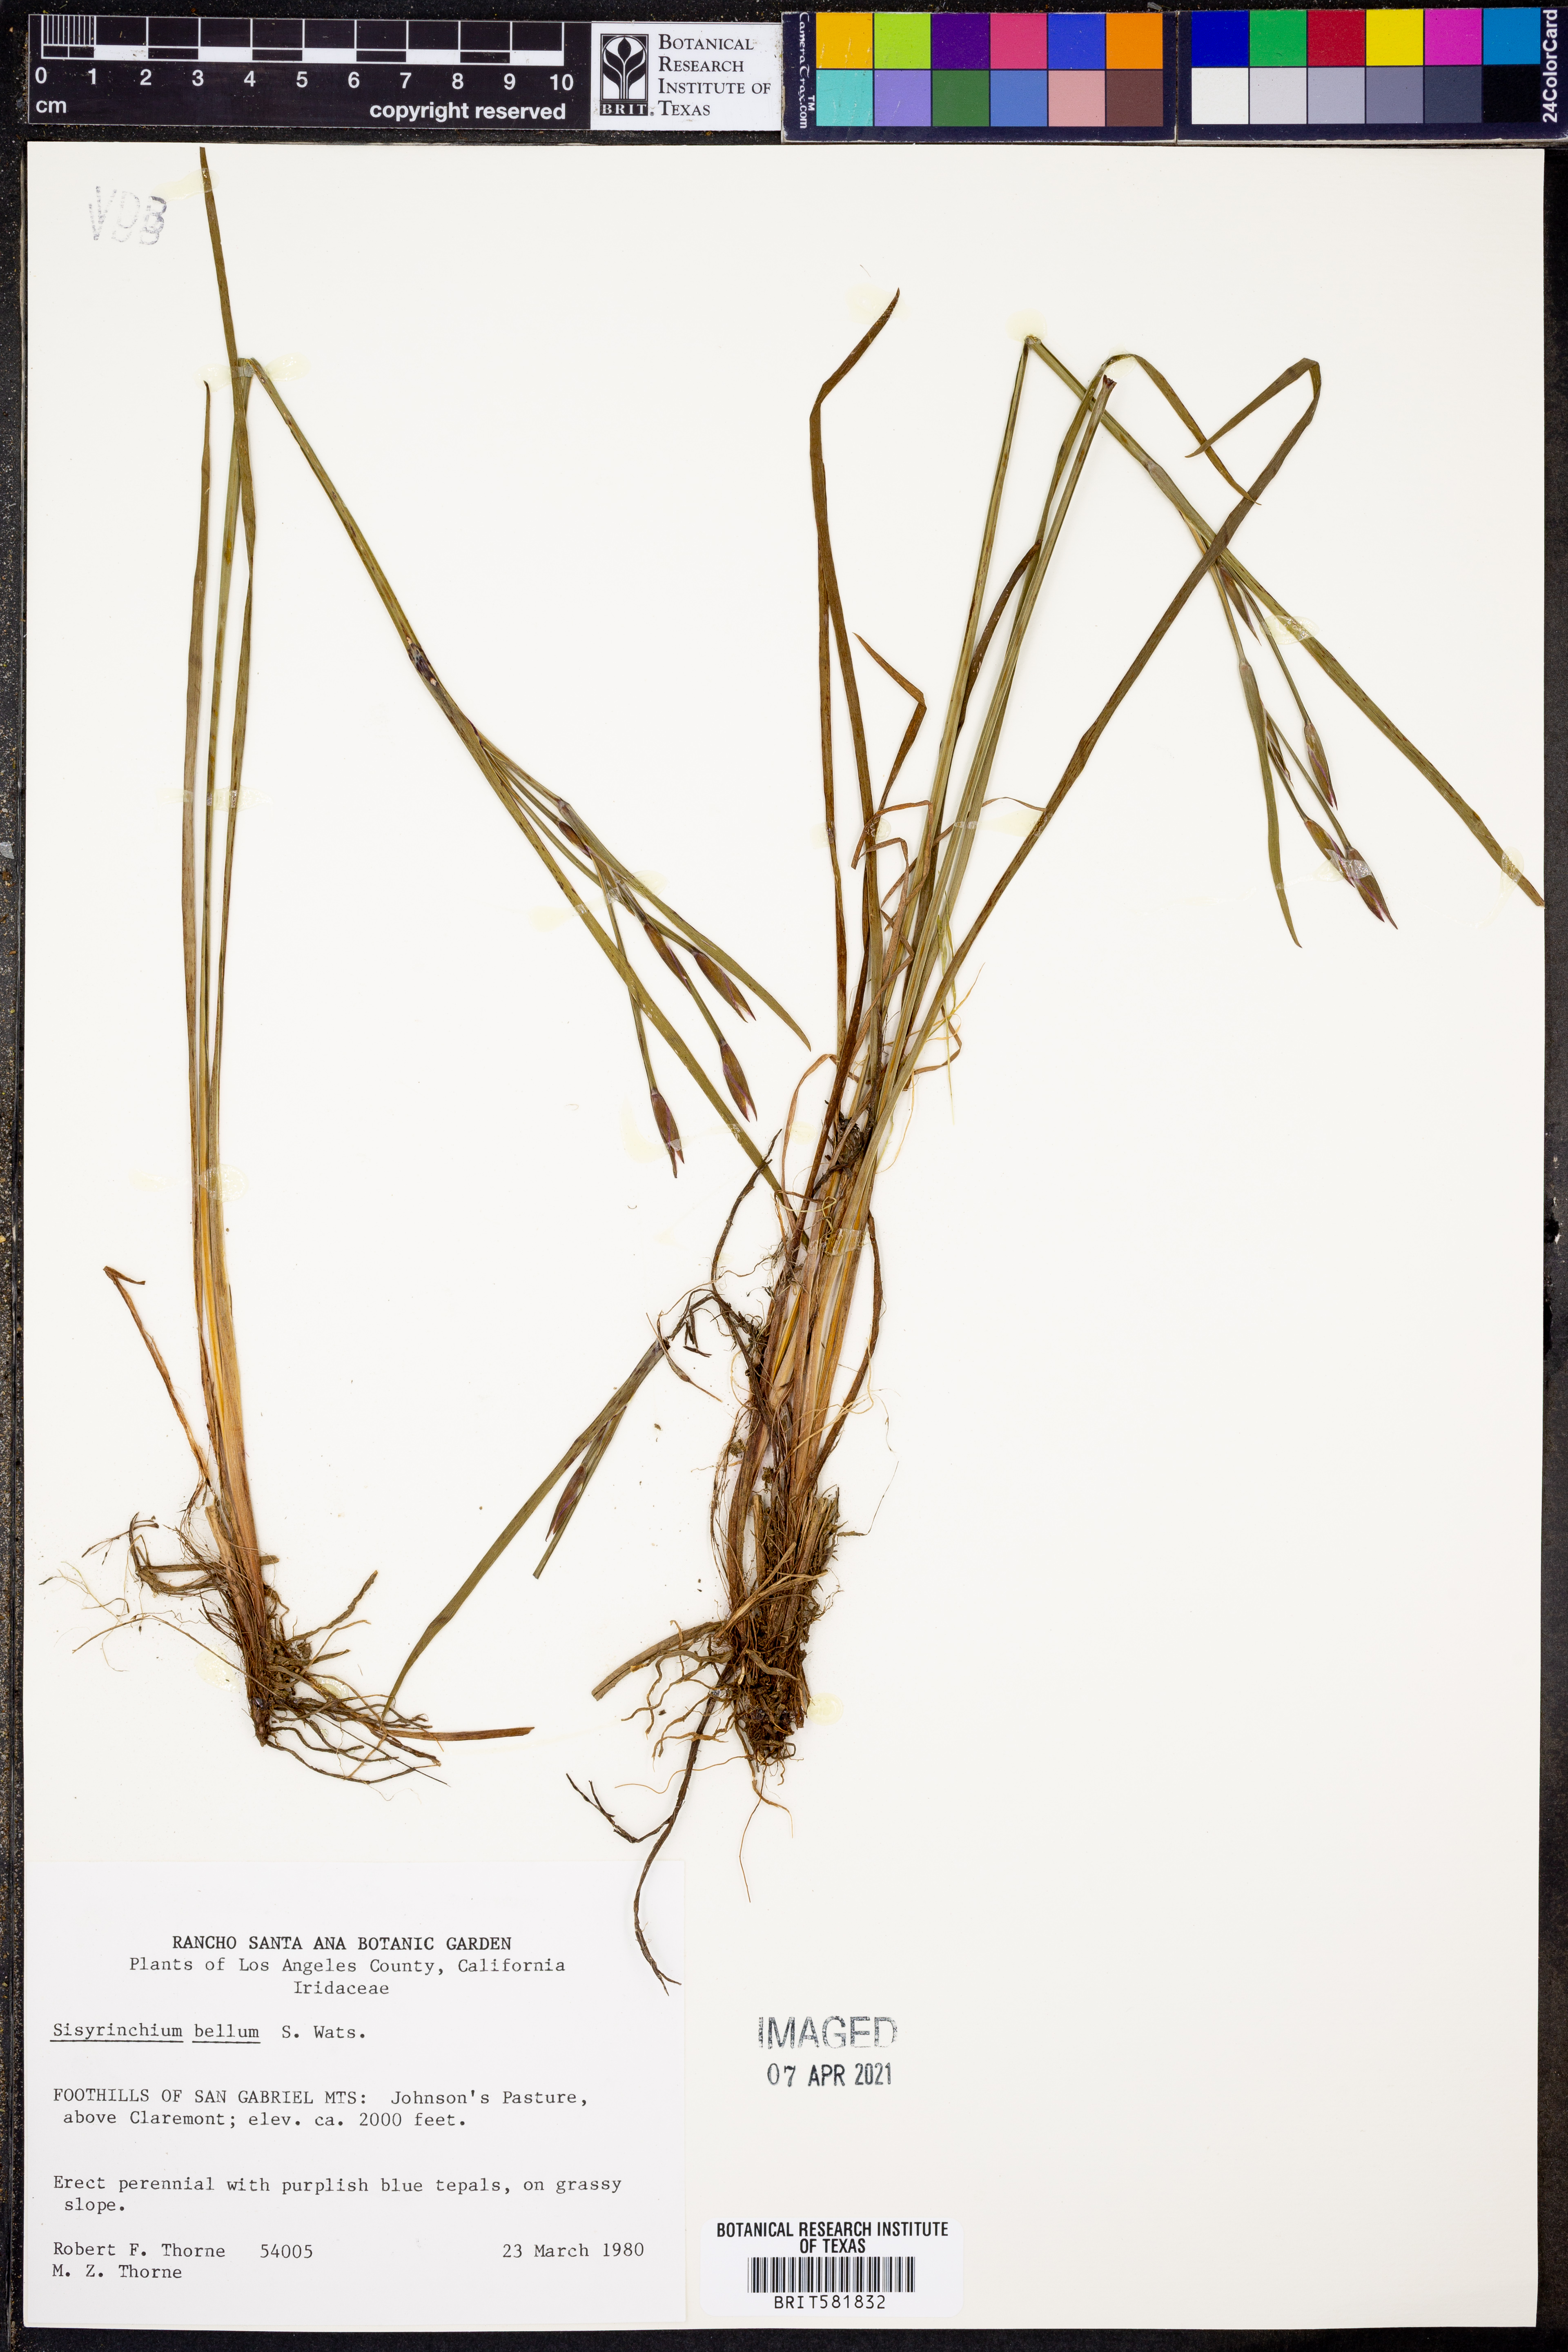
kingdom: Plantae
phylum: Tracheophyta
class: Liliopsida
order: Asparagales
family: Iridaceae
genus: Sisyrinchium
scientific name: Sisyrinchium bellum
